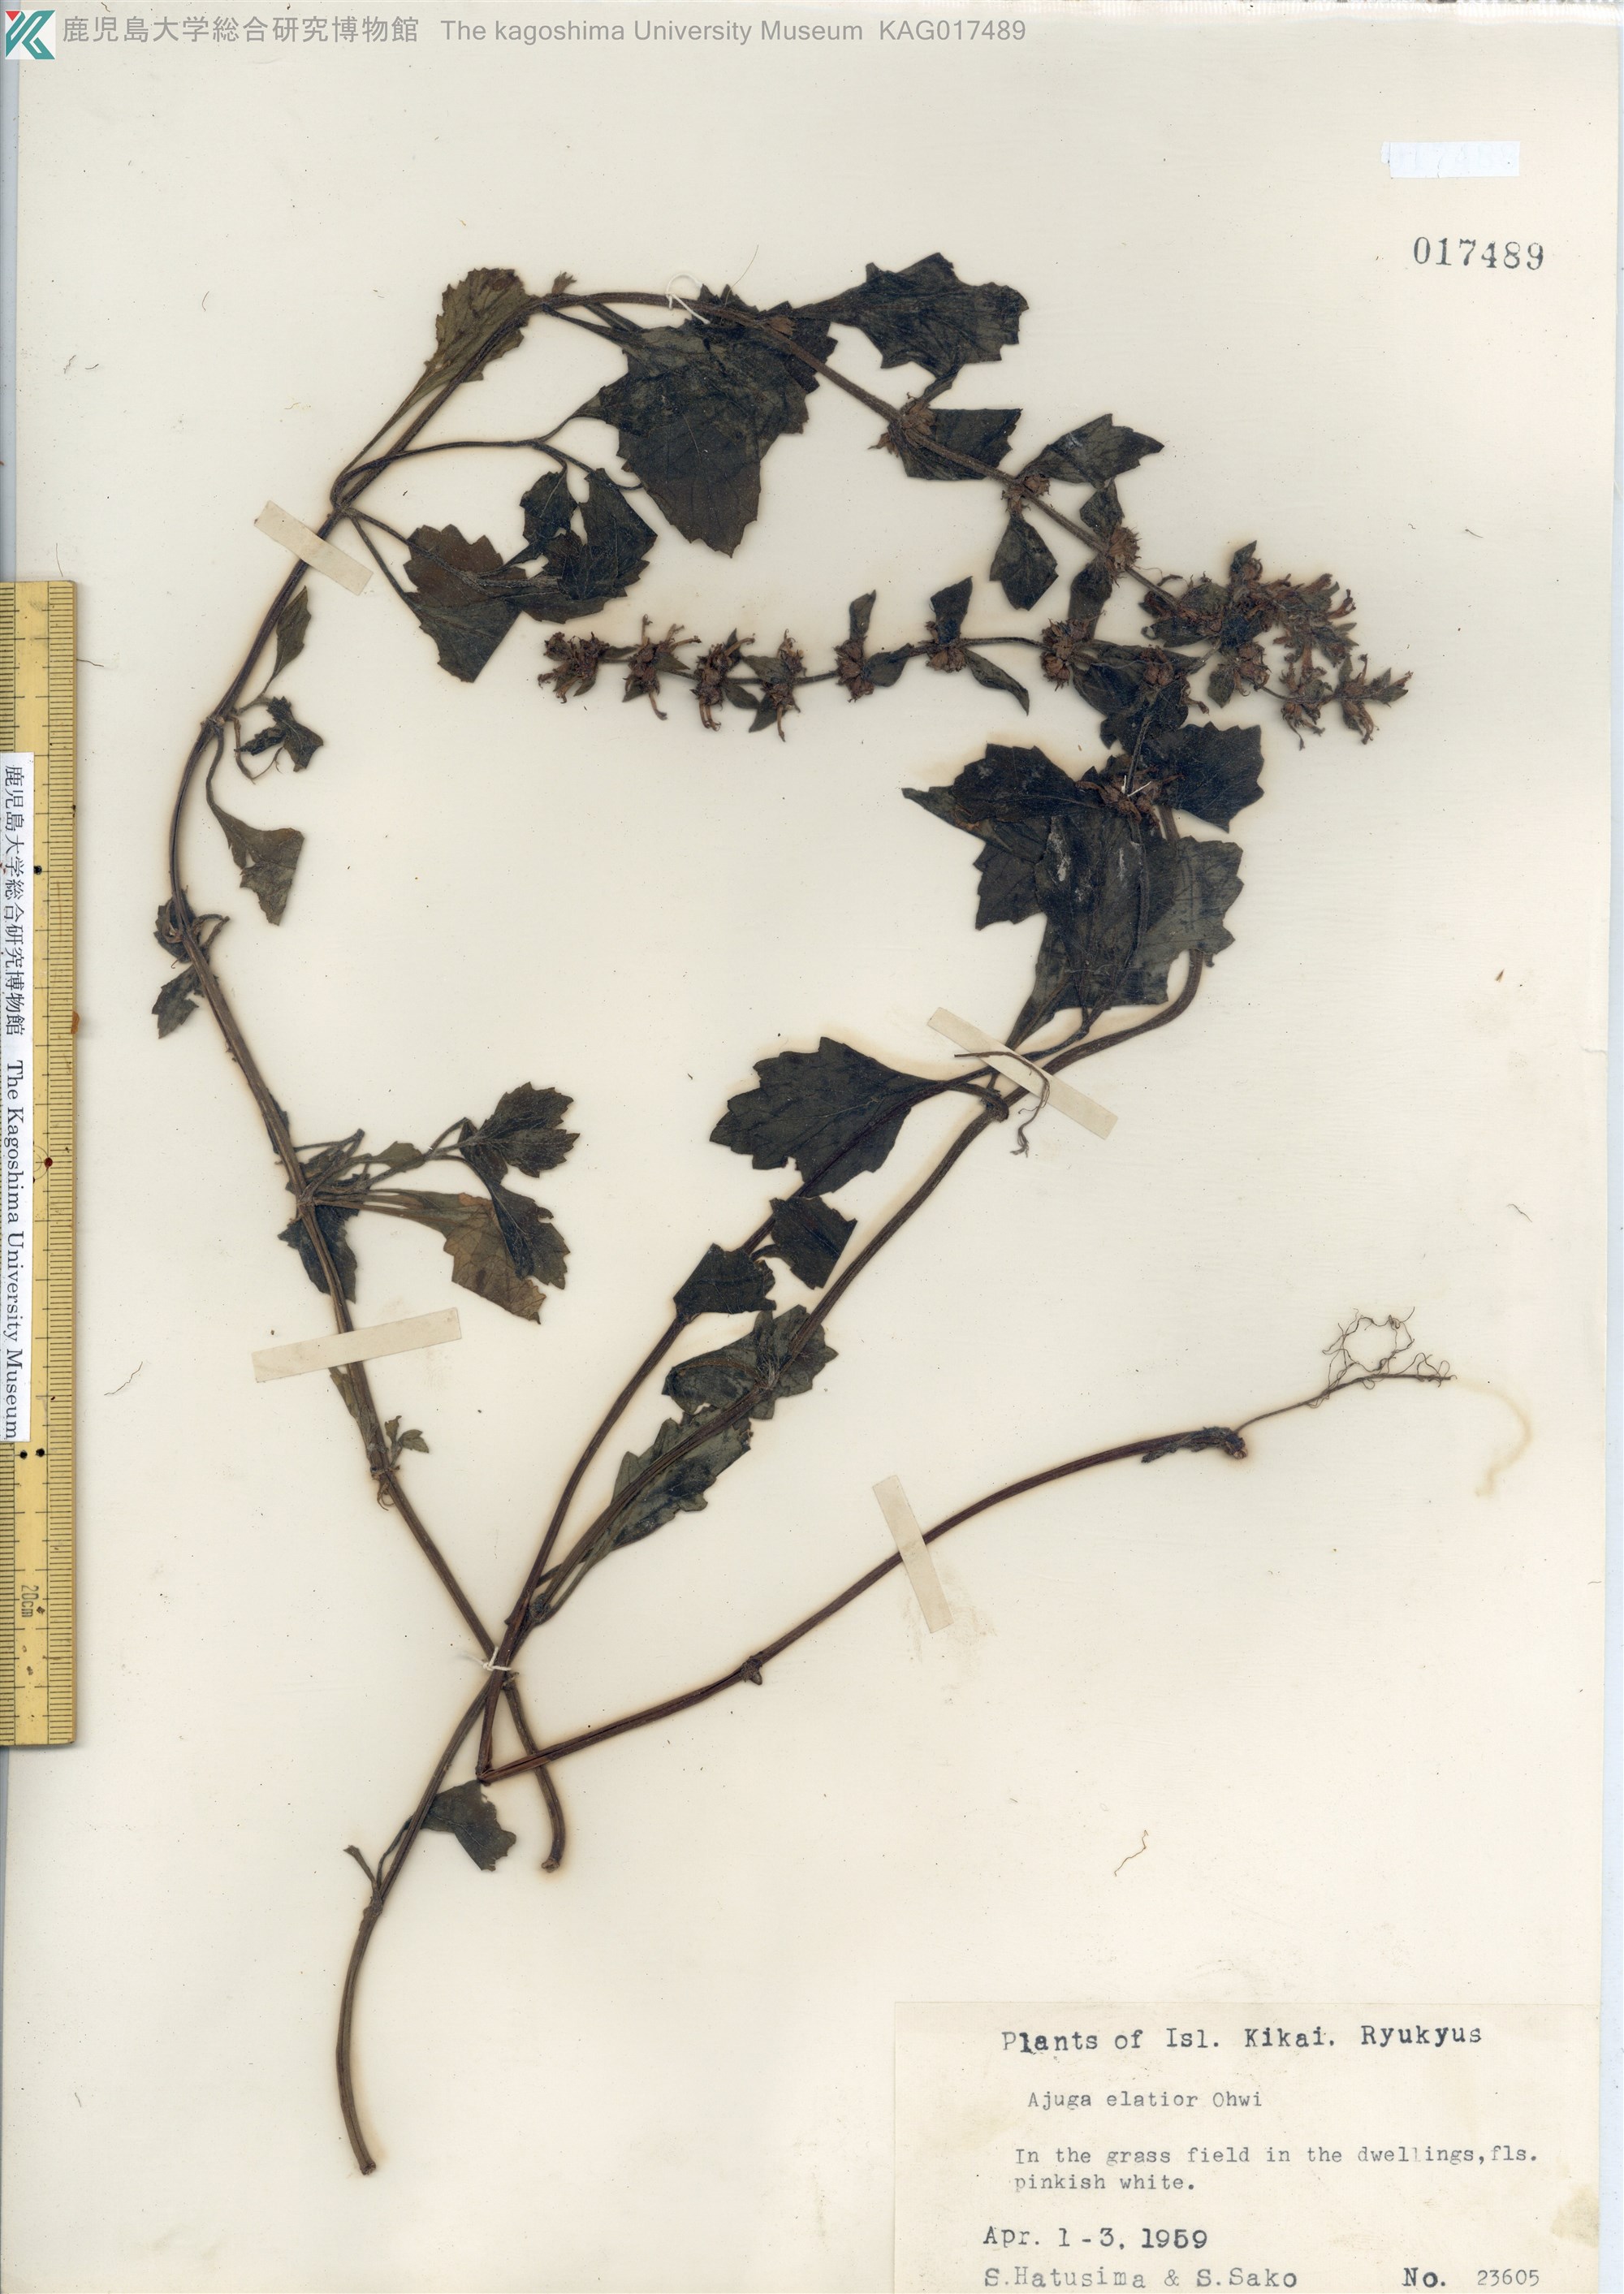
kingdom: Plantae
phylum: Tracheophyta
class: Magnoliopsida
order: Lamiales
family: Lamiaceae
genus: Ajuga
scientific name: Ajuga dictyocarpa
